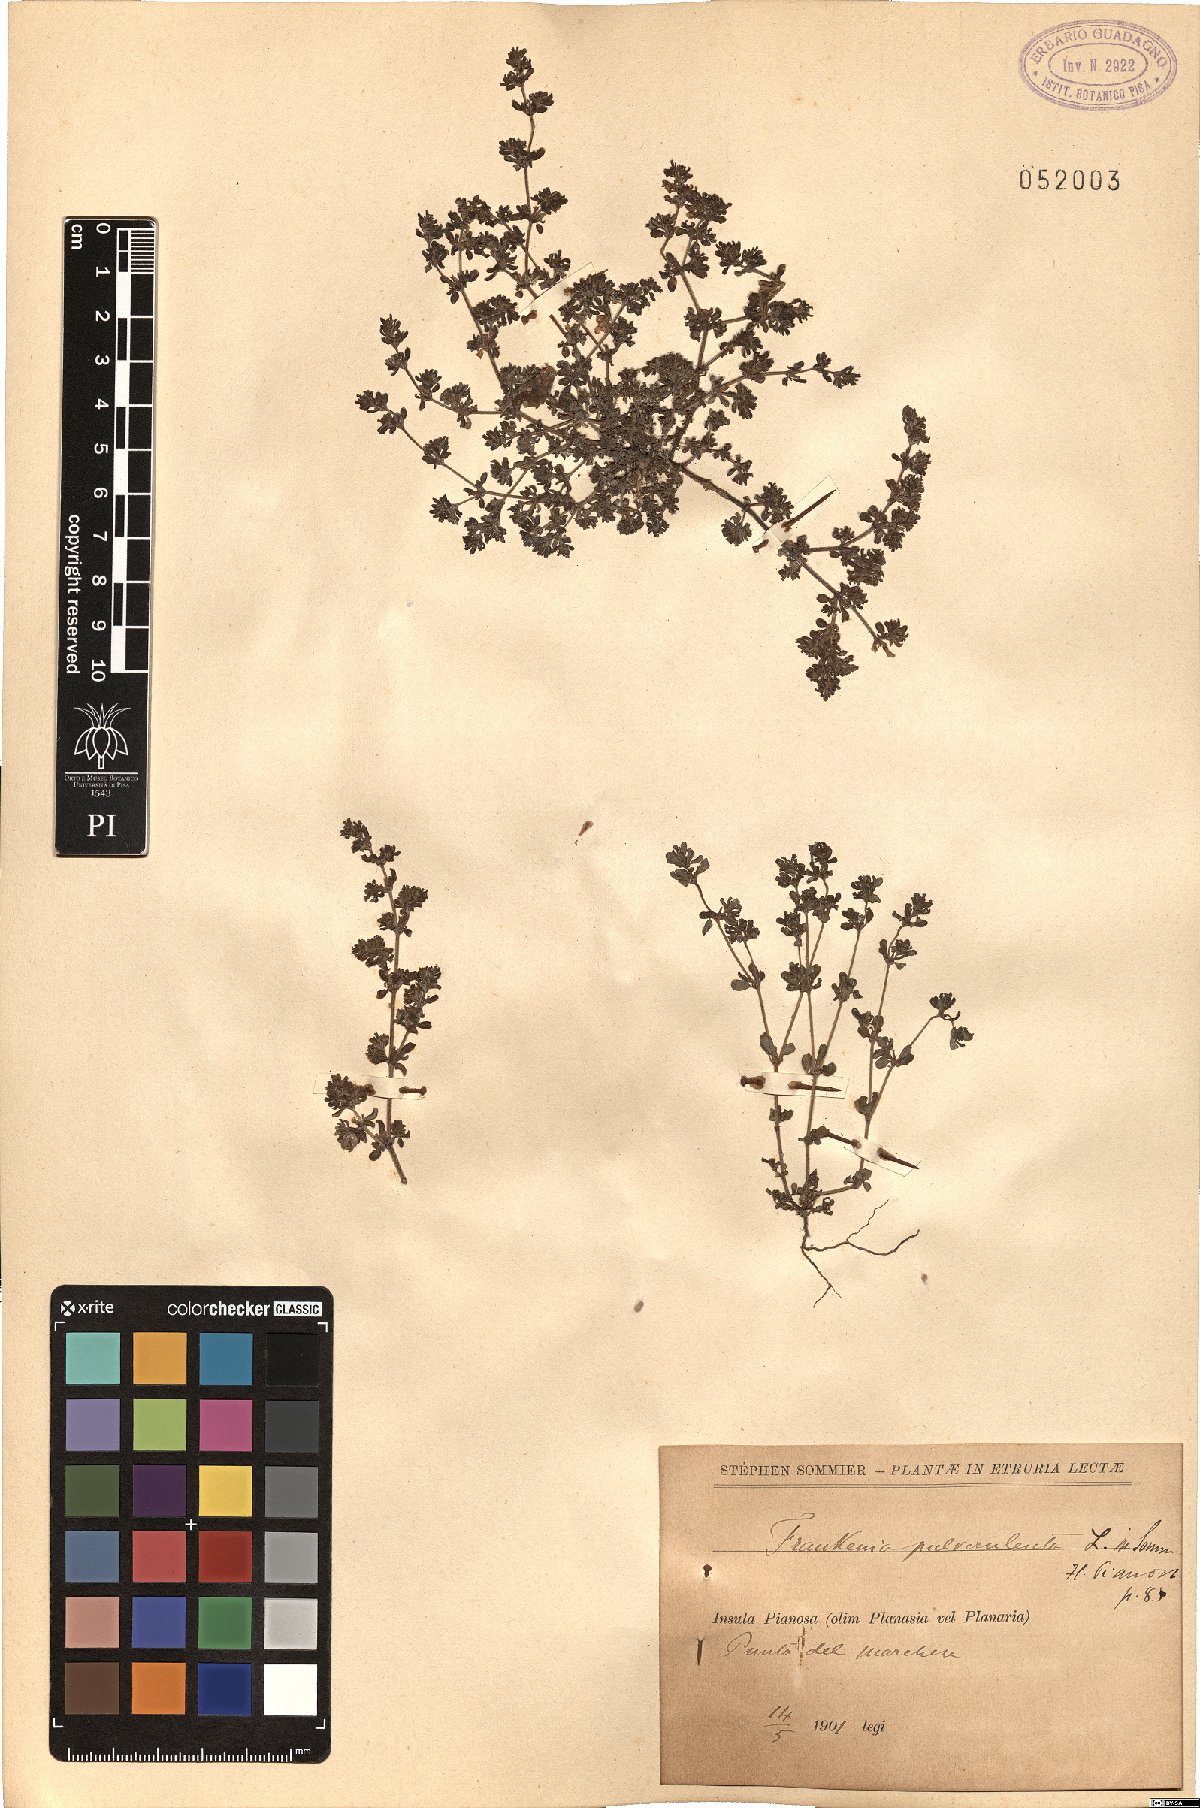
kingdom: Plantae
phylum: Tracheophyta
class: Magnoliopsida
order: Caryophyllales
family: Frankeniaceae
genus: Frankenia
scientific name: Frankenia pulverulenta
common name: European seaheath
